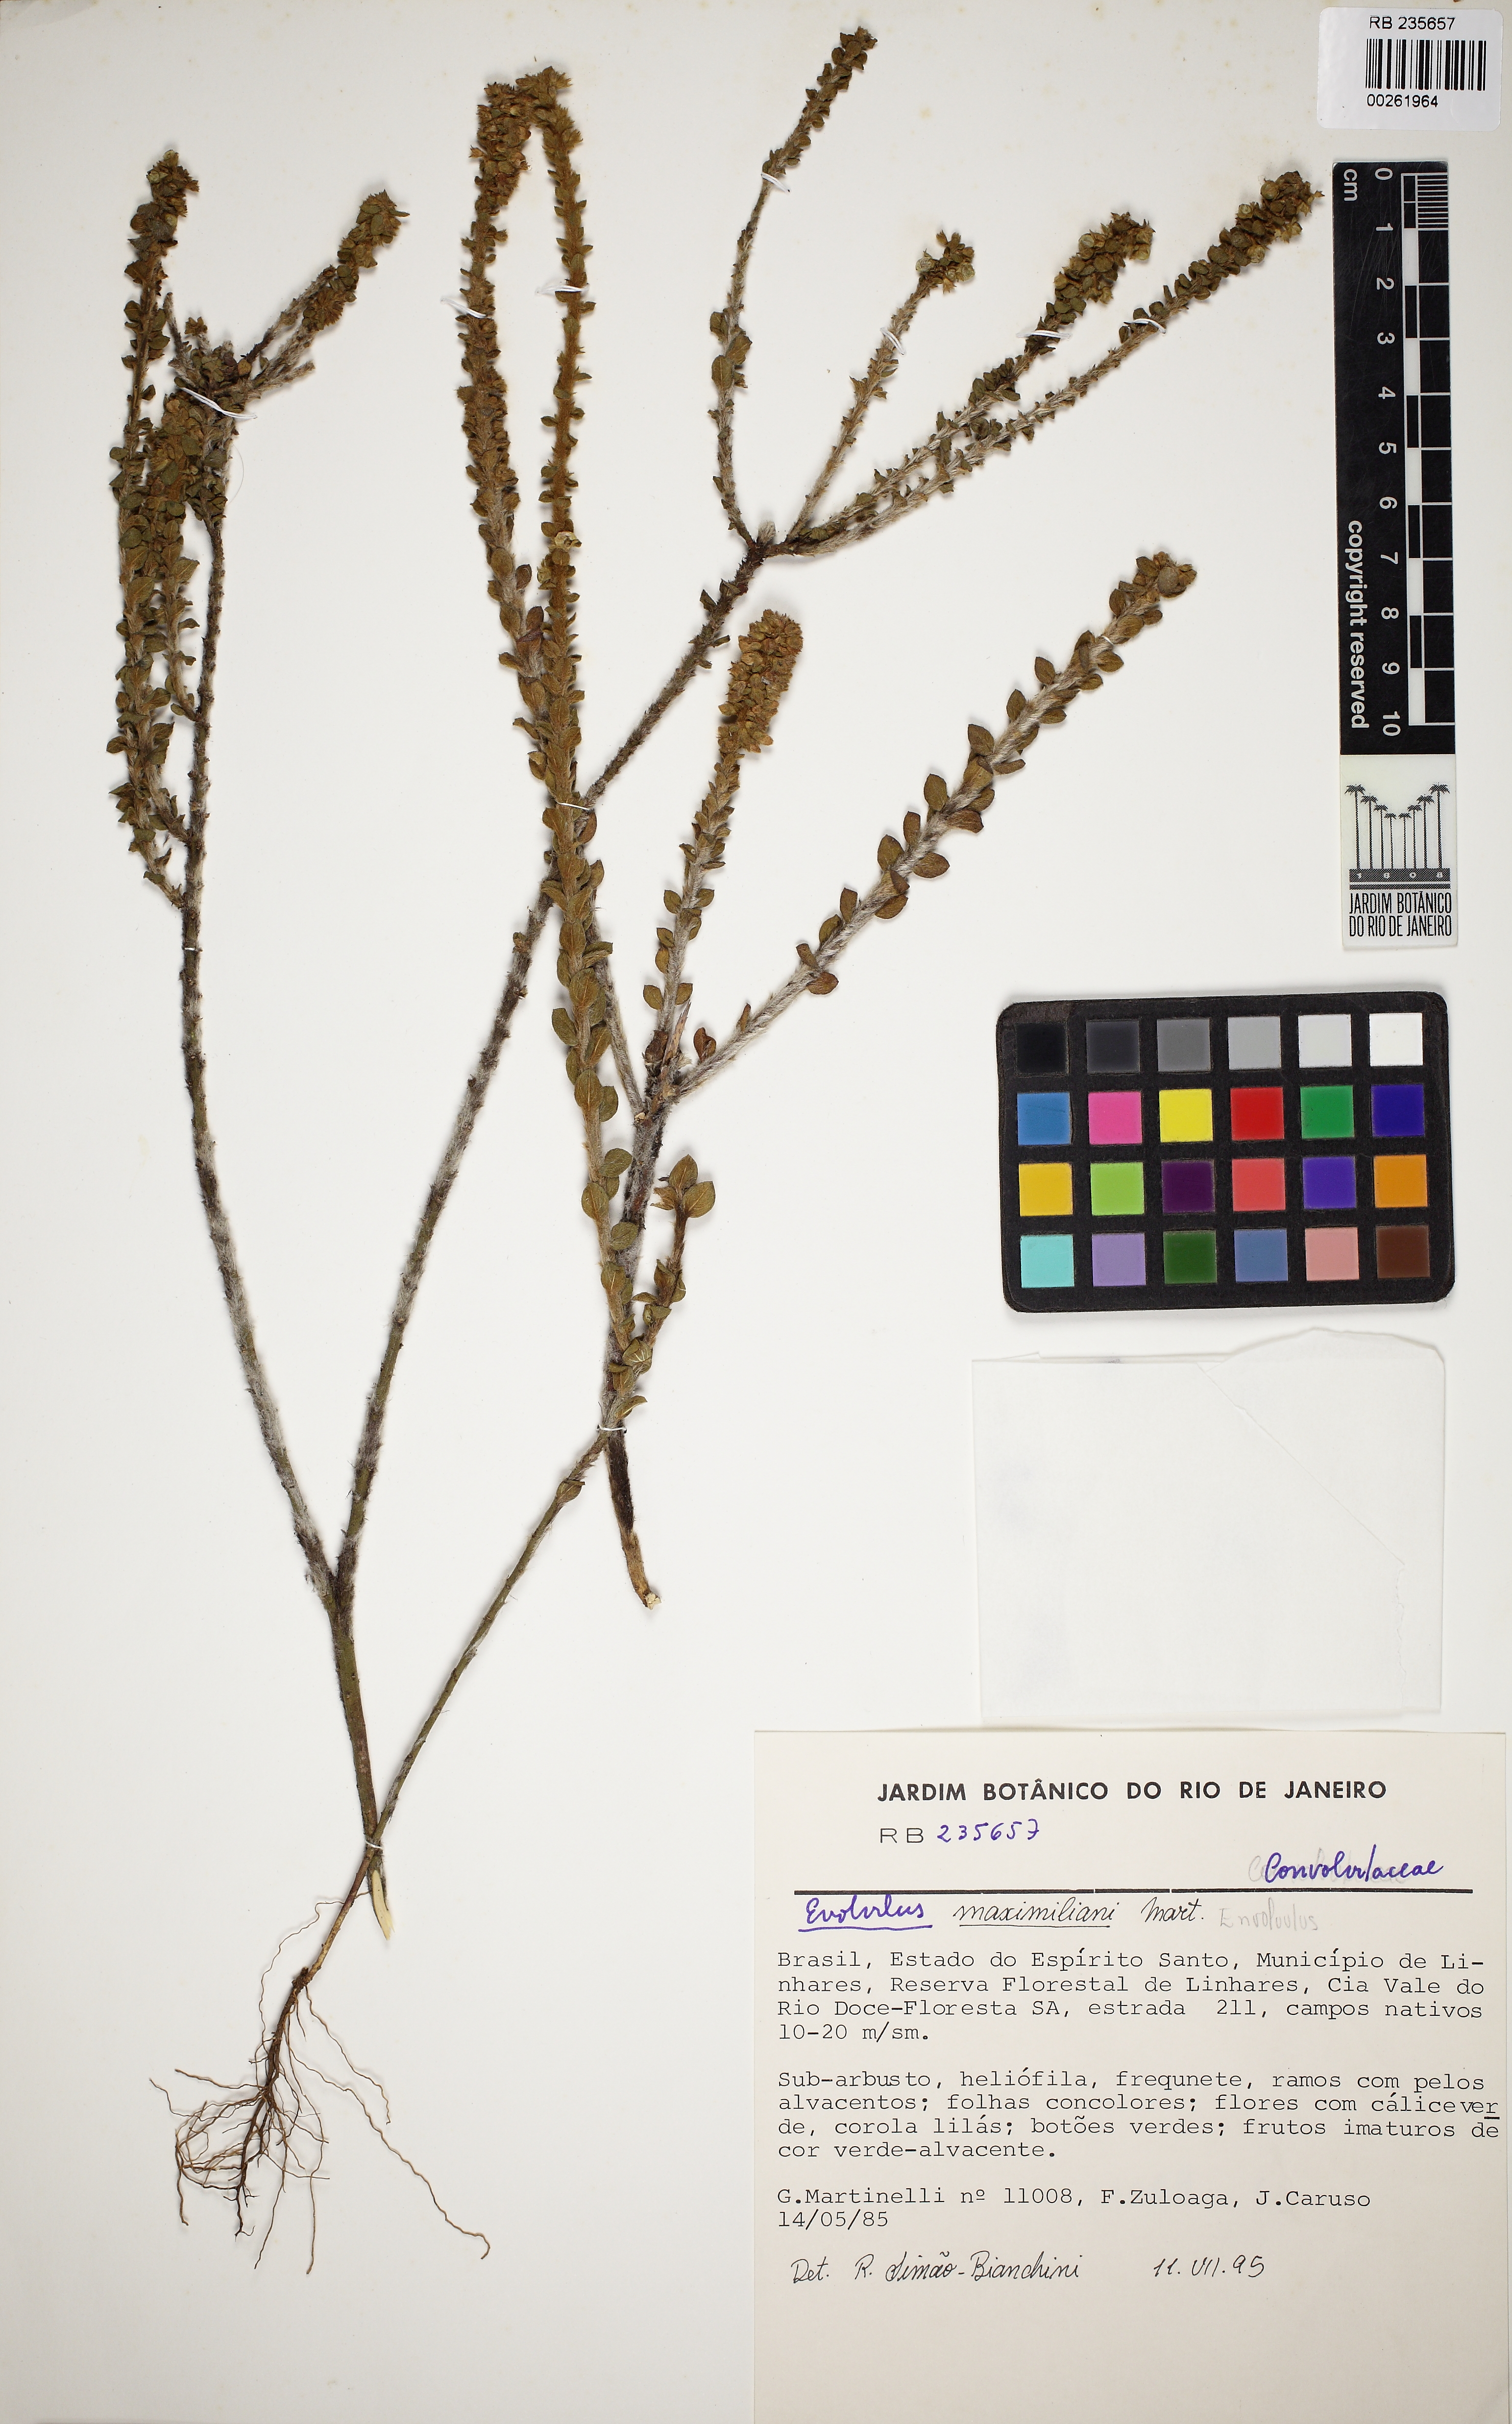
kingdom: Plantae
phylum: Tracheophyta
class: Magnoliopsida
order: Solanales
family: Convolvulaceae
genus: Evolvulus
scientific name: Evolvulus maximiliani
